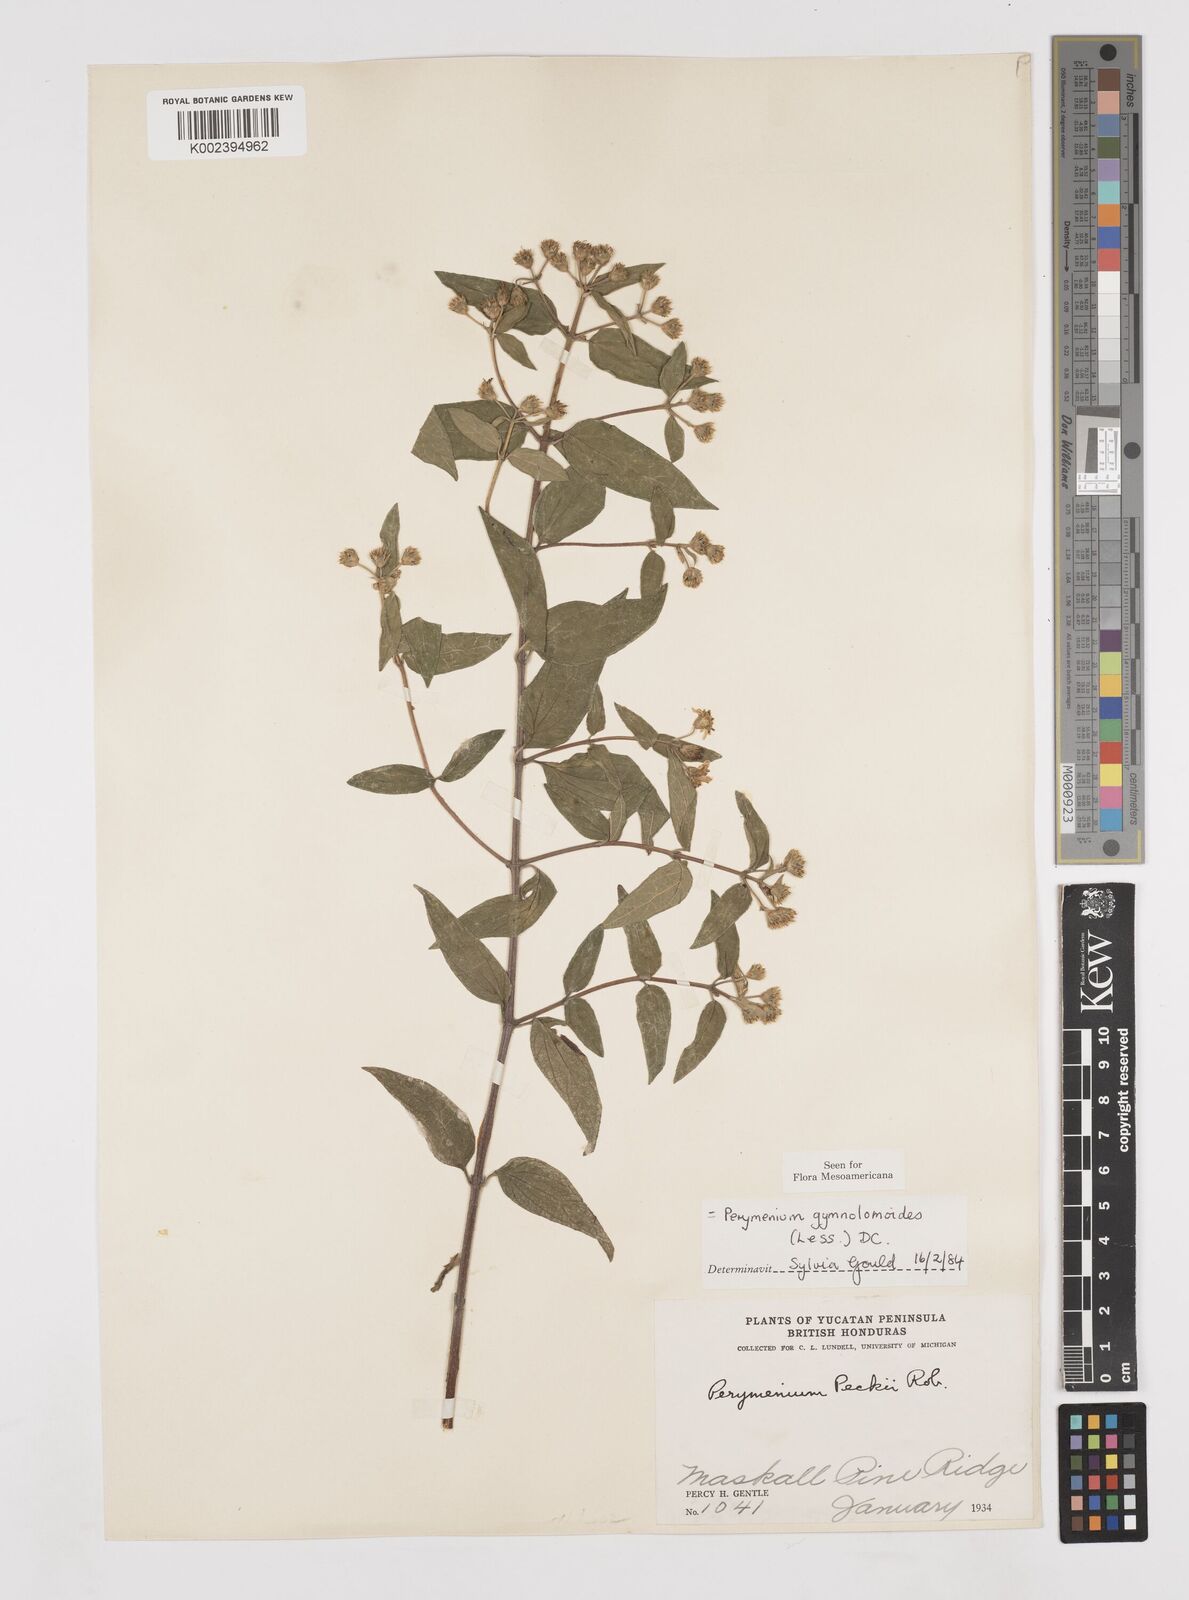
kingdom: Plantae
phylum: Tracheophyta
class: Magnoliopsida
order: Asterales
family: Asteraceae
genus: Perymenium
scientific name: Perymenium gymnolomoides
